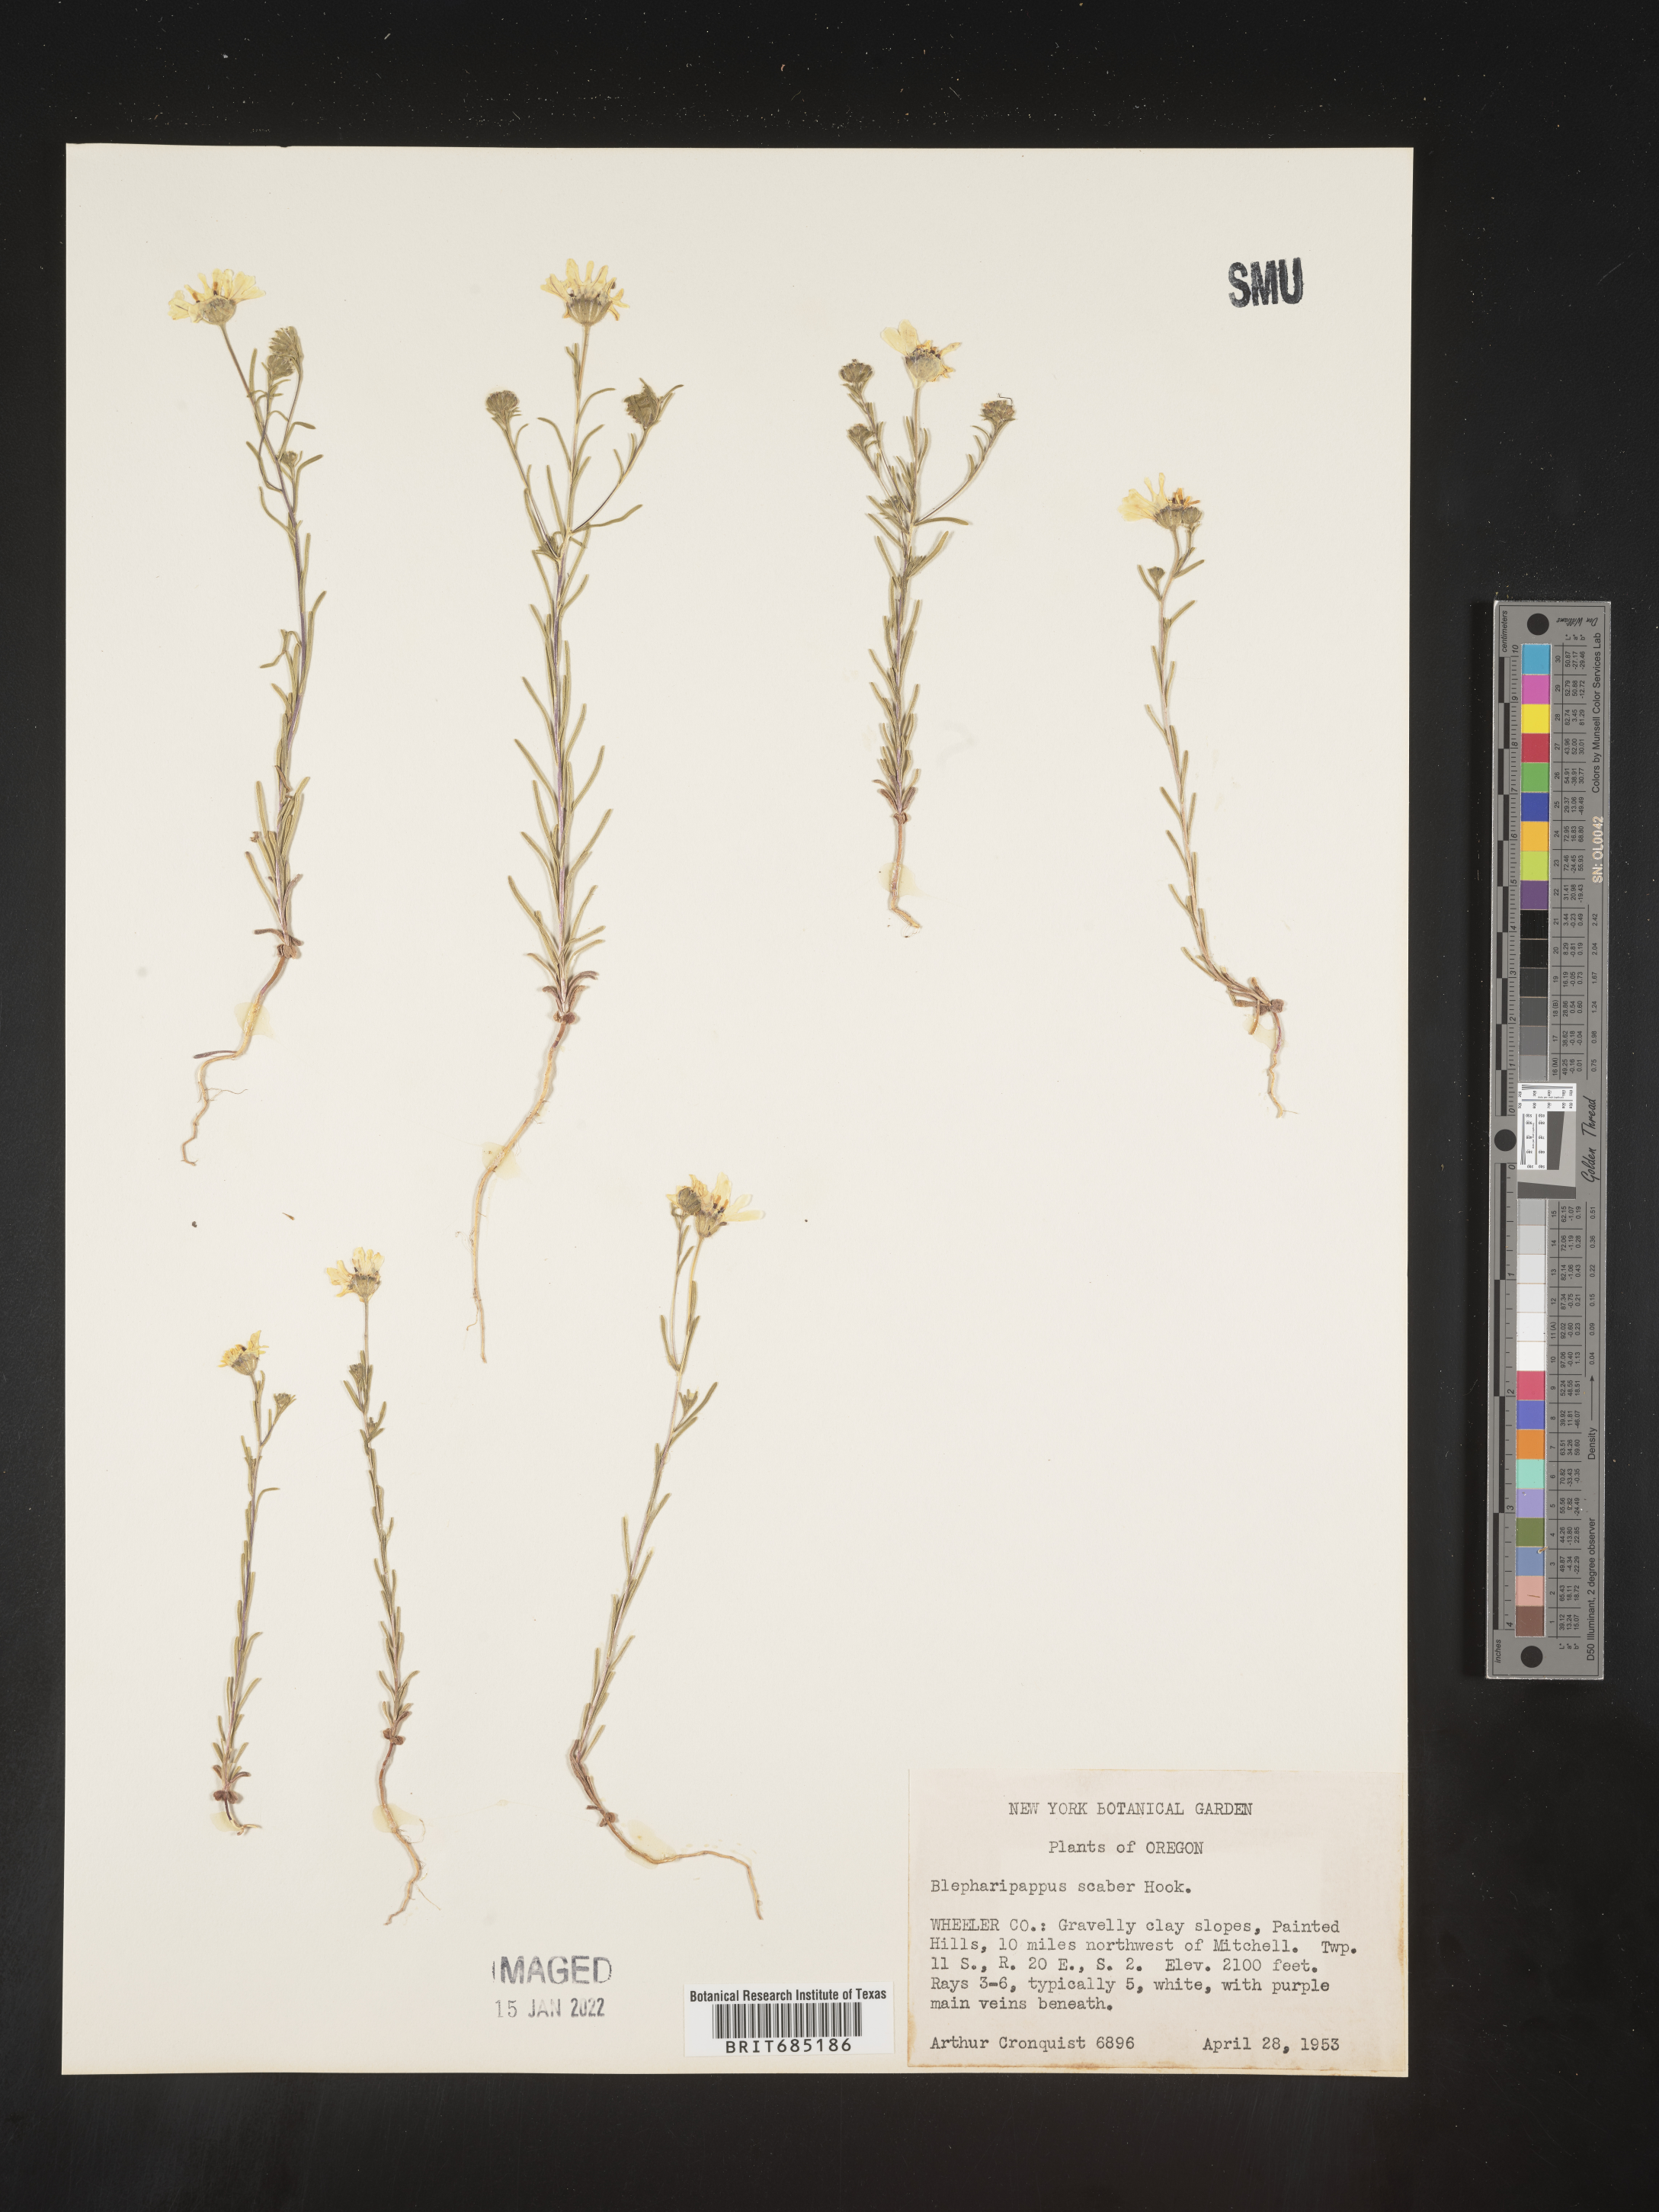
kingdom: Plantae
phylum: Tracheophyta
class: Magnoliopsida
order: Asterales
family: Asteraceae
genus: Blepharipappus
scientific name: Blepharipappus
